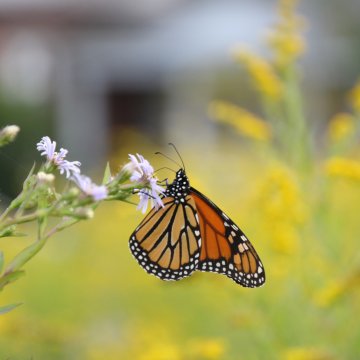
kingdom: Animalia
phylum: Arthropoda
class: Insecta
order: Lepidoptera
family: Nymphalidae
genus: Danaus
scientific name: Danaus plexippus
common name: Monarch
